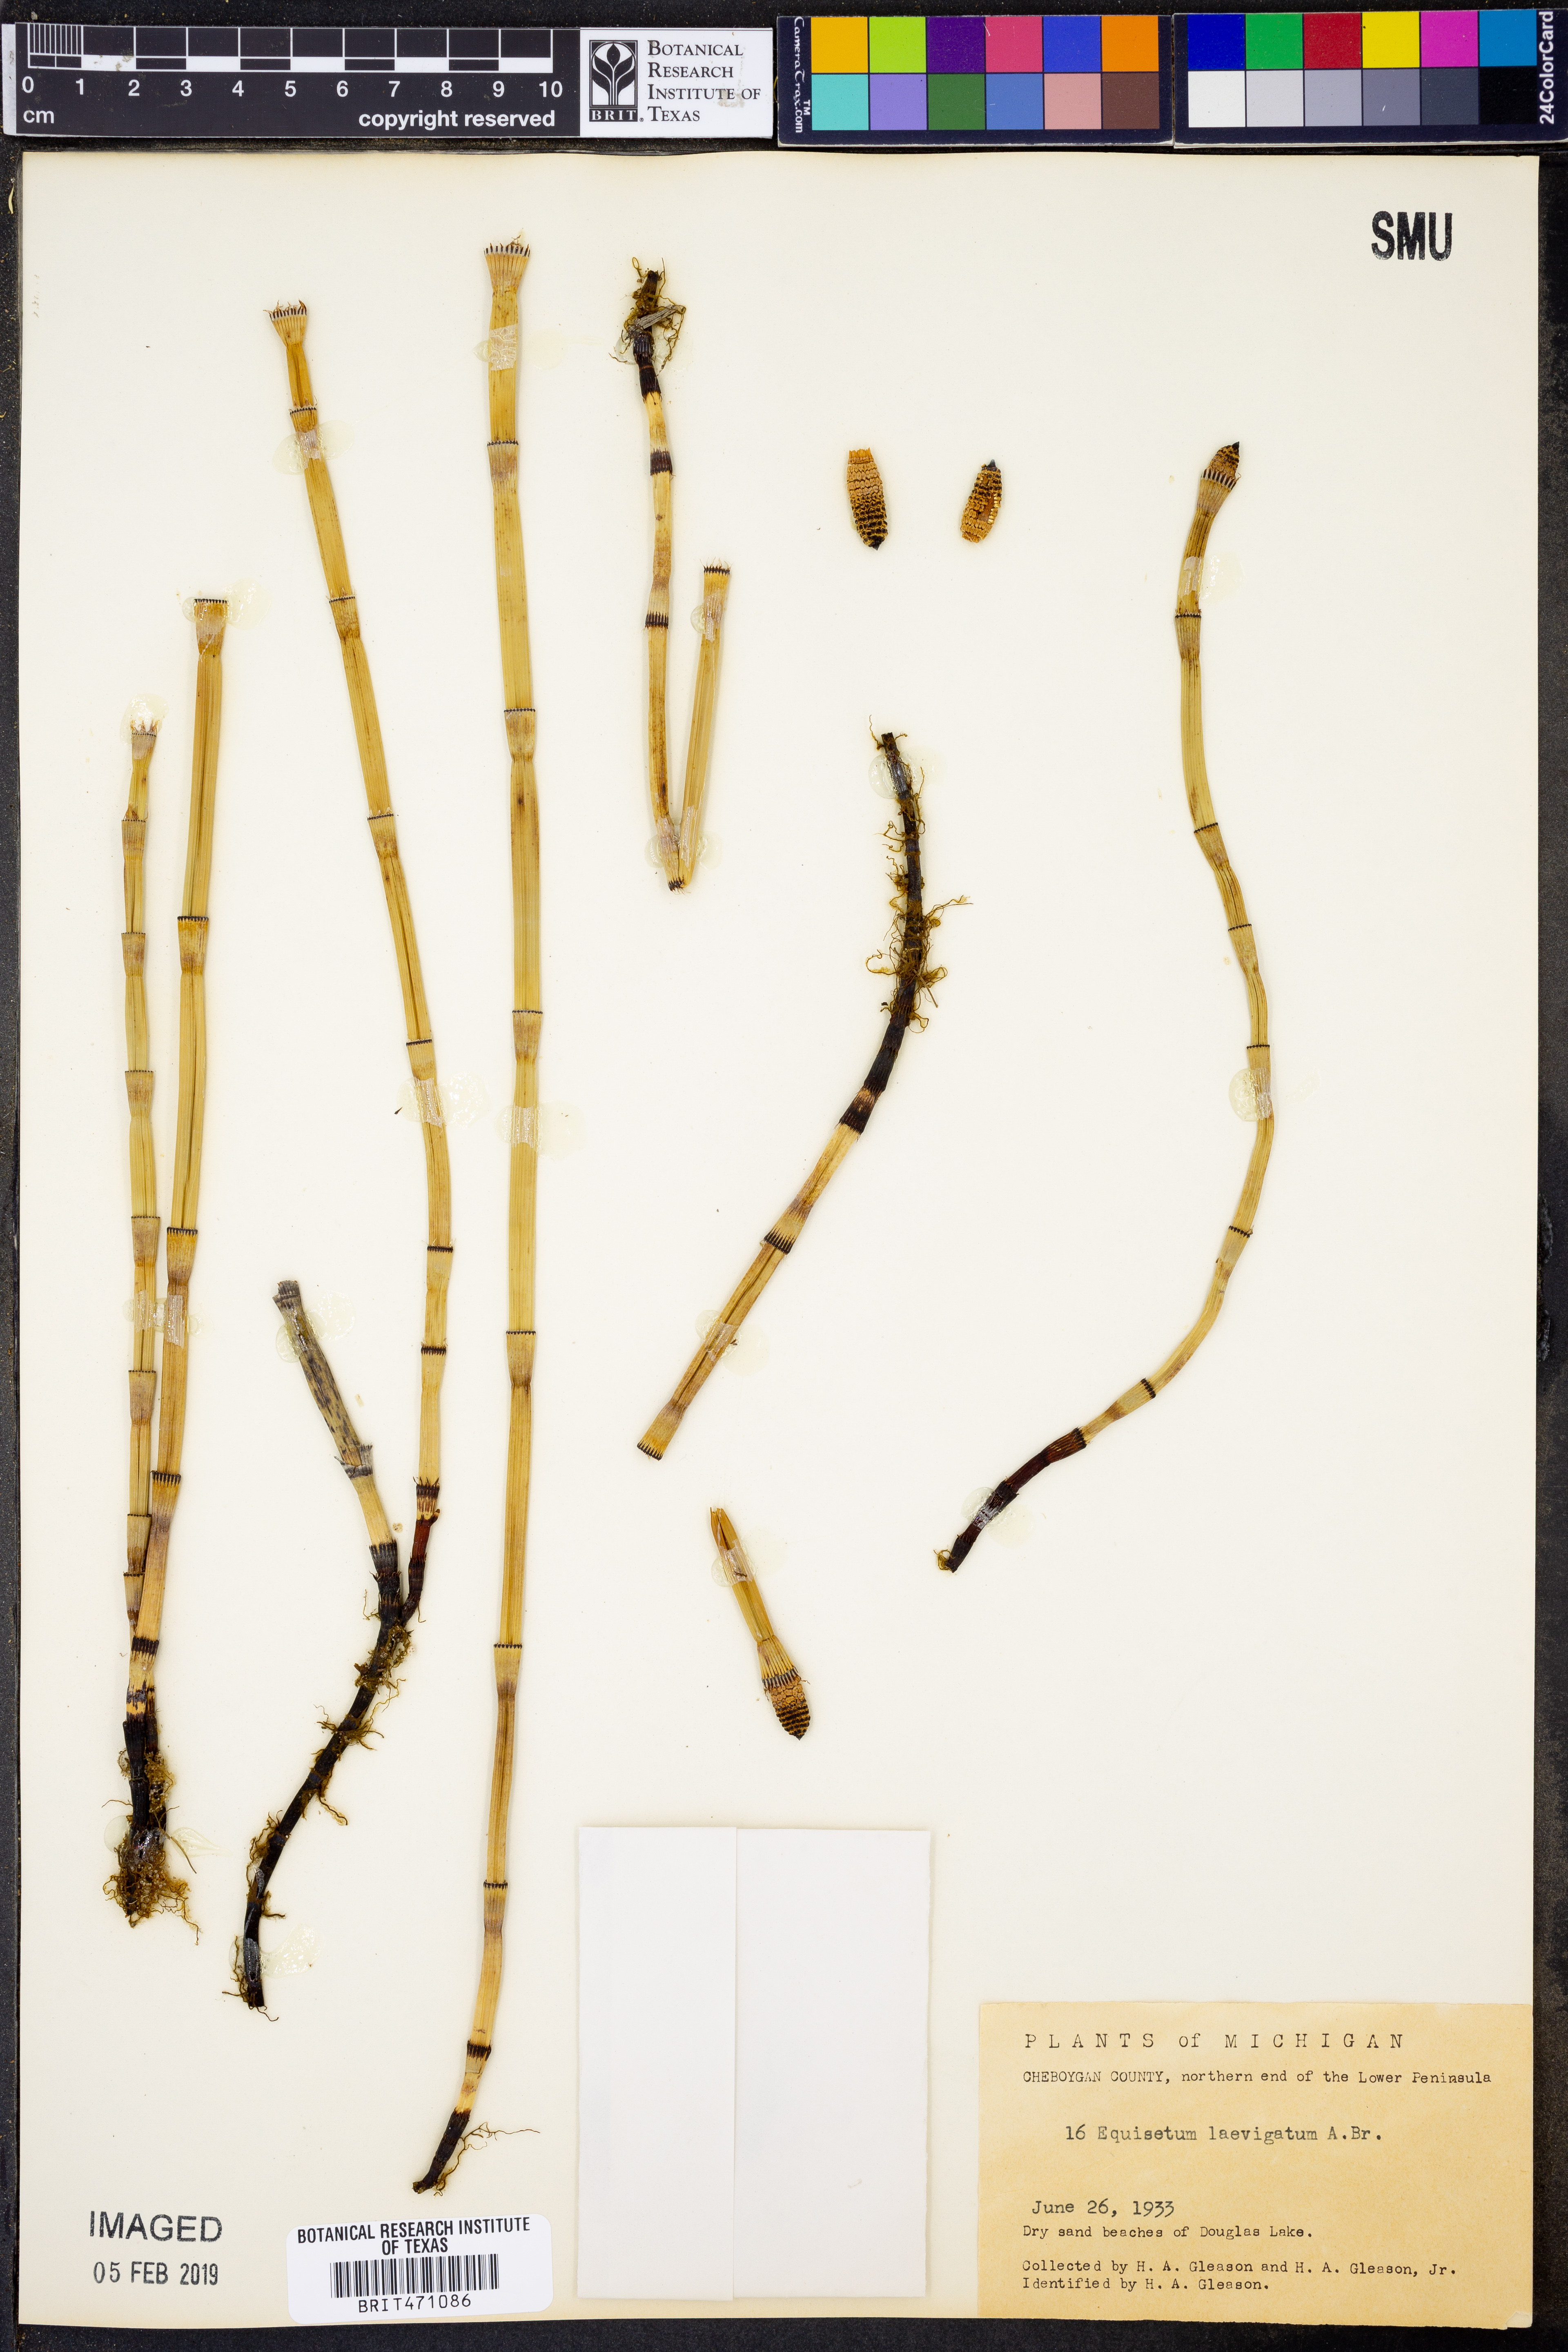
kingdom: Plantae
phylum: Tracheophyta
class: Polypodiopsida
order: Equisetales
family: Equisetaceae
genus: Equisetum
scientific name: Equisetum laevigatum
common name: Smooth scouring-rush
